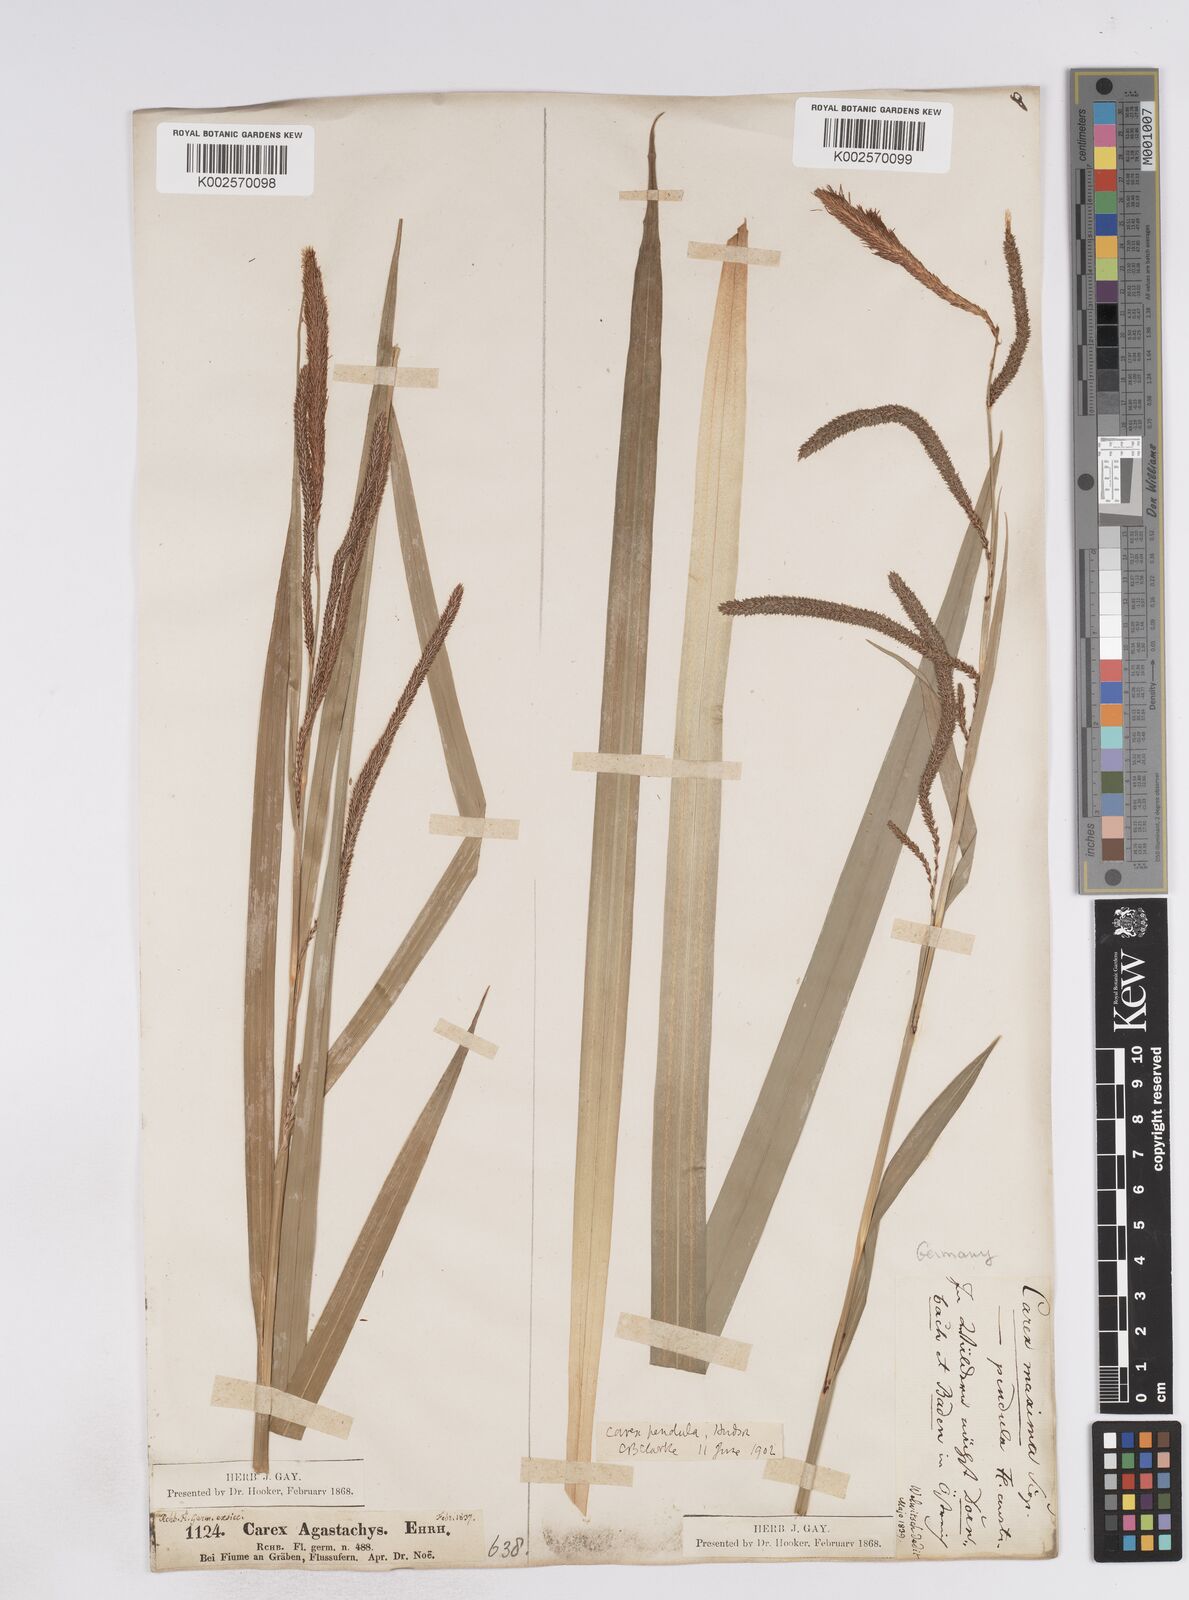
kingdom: Plantae
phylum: Tracheophyta
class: Liliopsida
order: Poales
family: Cyperaceae
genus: Carex
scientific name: Carex pendula
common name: Pendulous sedge
